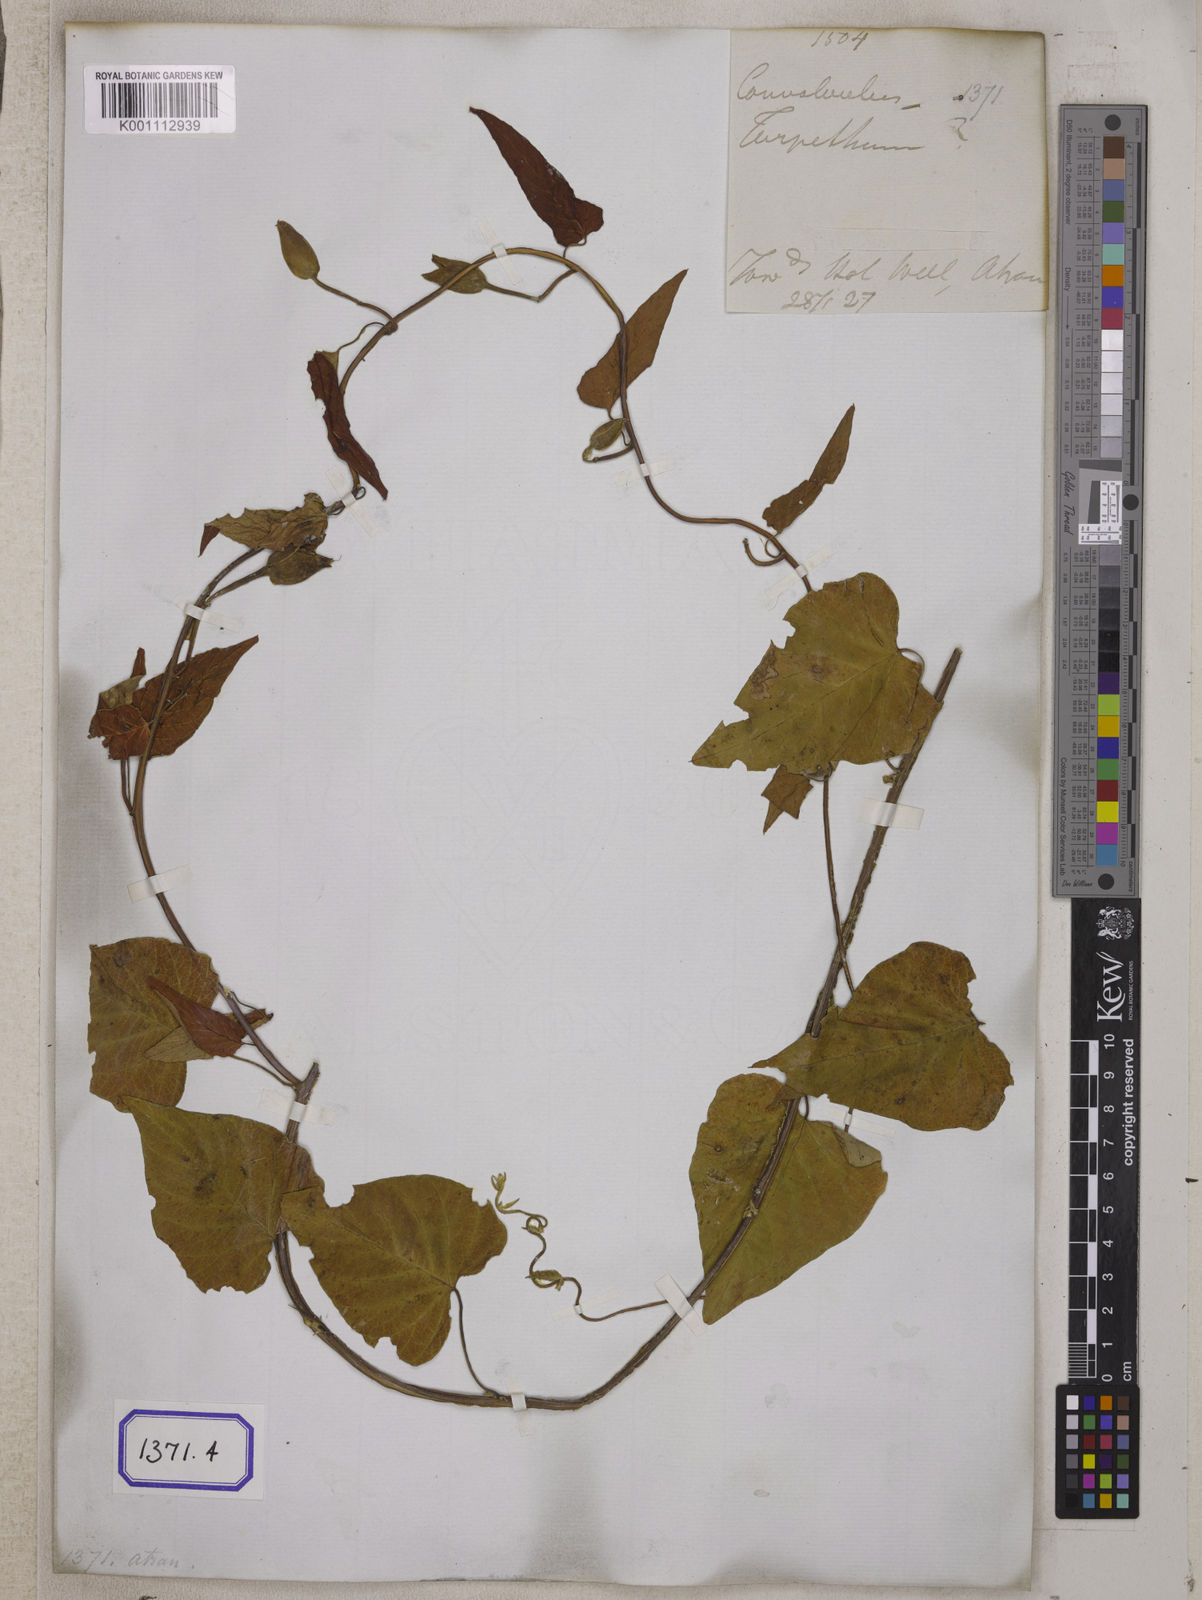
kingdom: Plantae
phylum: Tracheophyta
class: Magnoliopsida
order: Solanales
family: Convolvulaceae
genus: Operculina
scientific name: Operculina turpethum
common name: Transparent wood-rose
